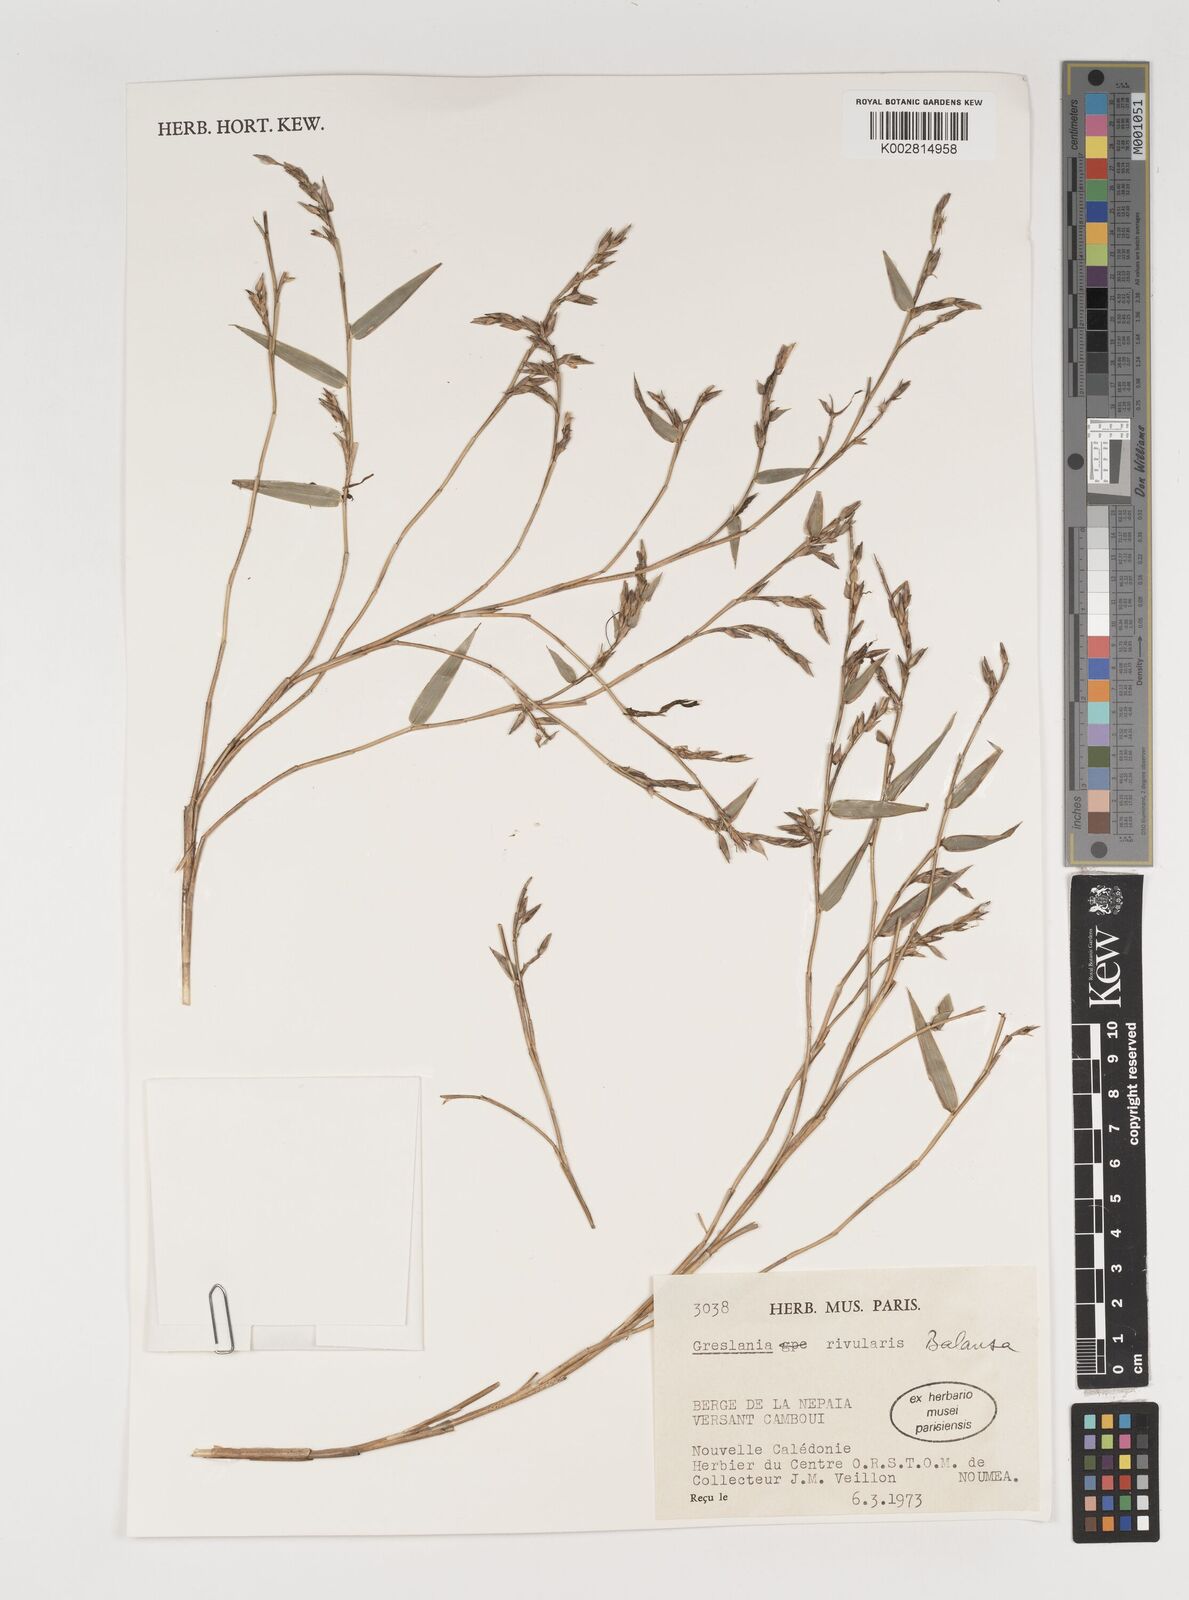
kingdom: Plantae
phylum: Tracheophyta
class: Liliopsida
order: Poales
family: Poaceae
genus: Greslania
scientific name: Greslania rivularis
